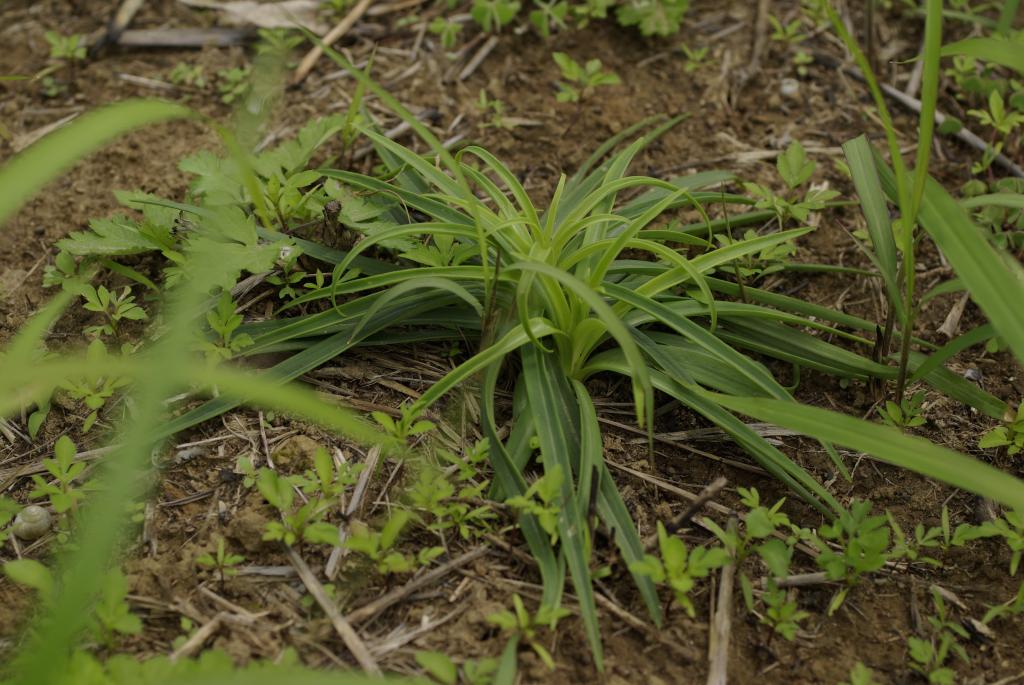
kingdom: Plantae
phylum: Tracheophyta
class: Liliopsida
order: Liliales
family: Liliaceae
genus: Lilium
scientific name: Lilium formosanum
